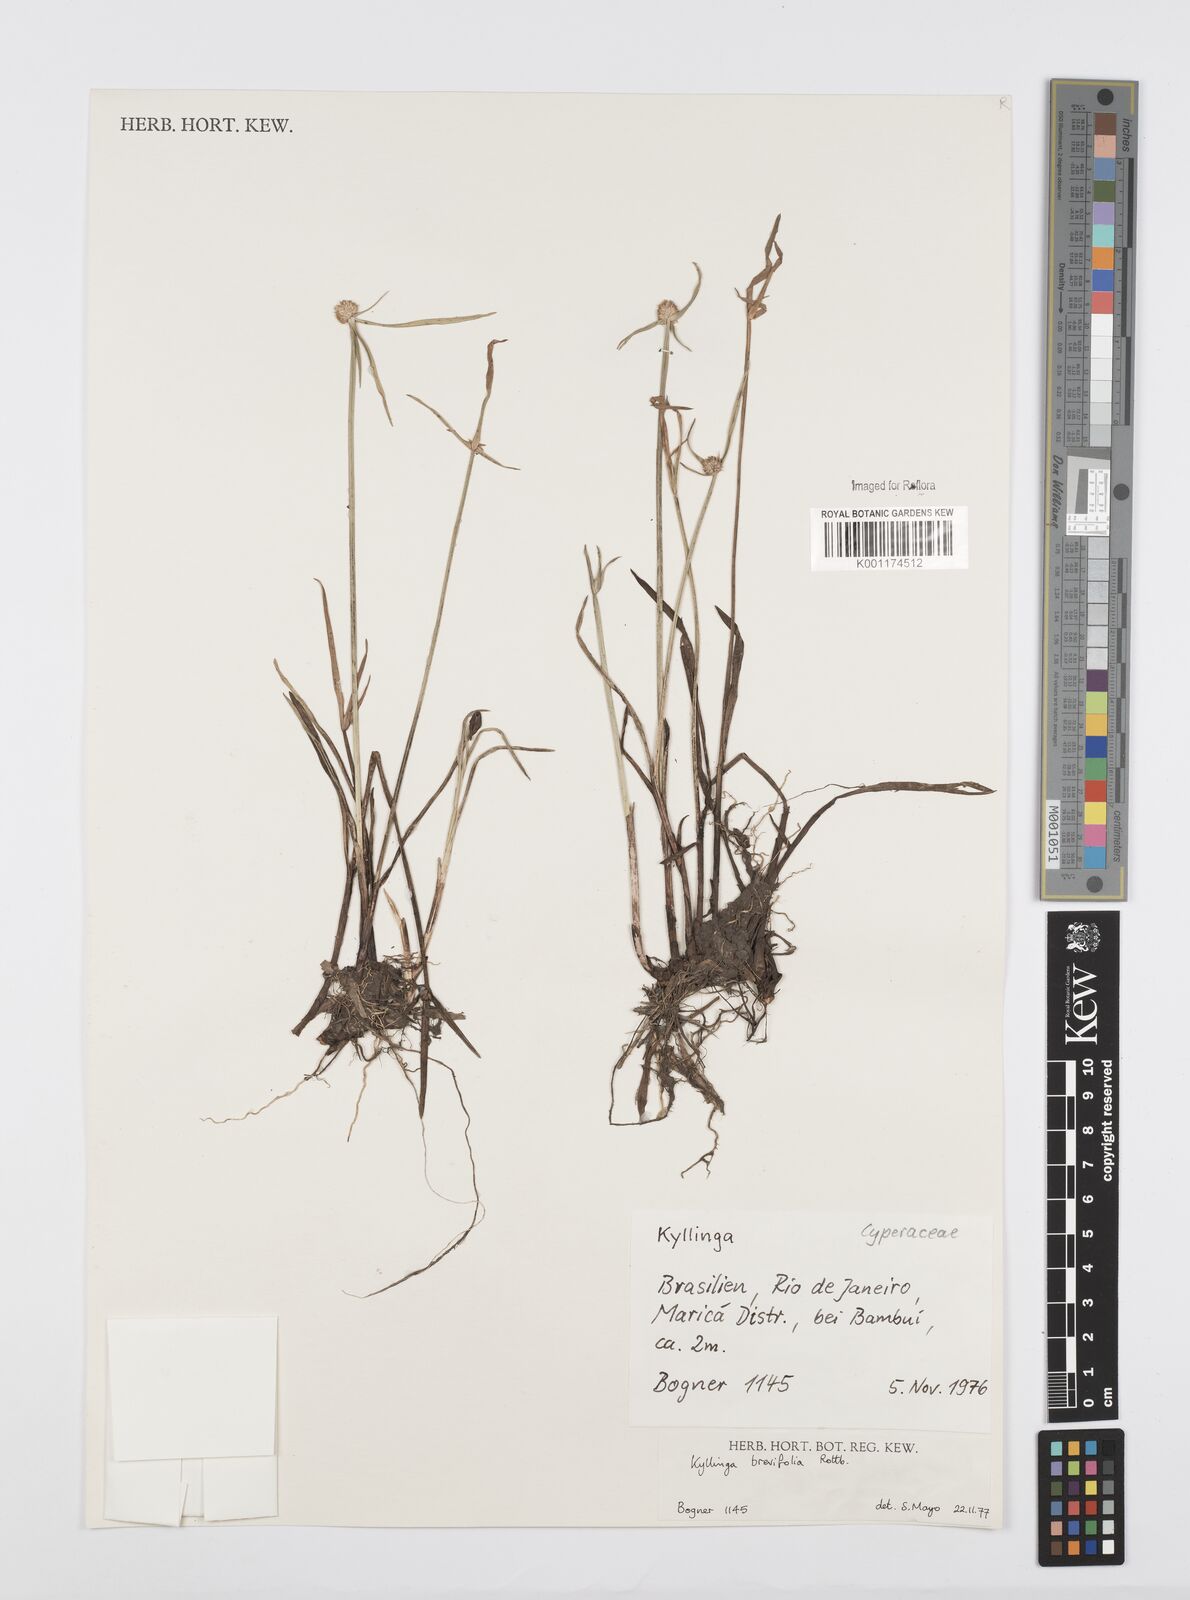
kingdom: Plantae
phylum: Tracheophyta
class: Liliopsida
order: Poales
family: Cyperaceae
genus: Cyperus
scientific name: Cyperus brevifolius
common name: Globe kyllinga
